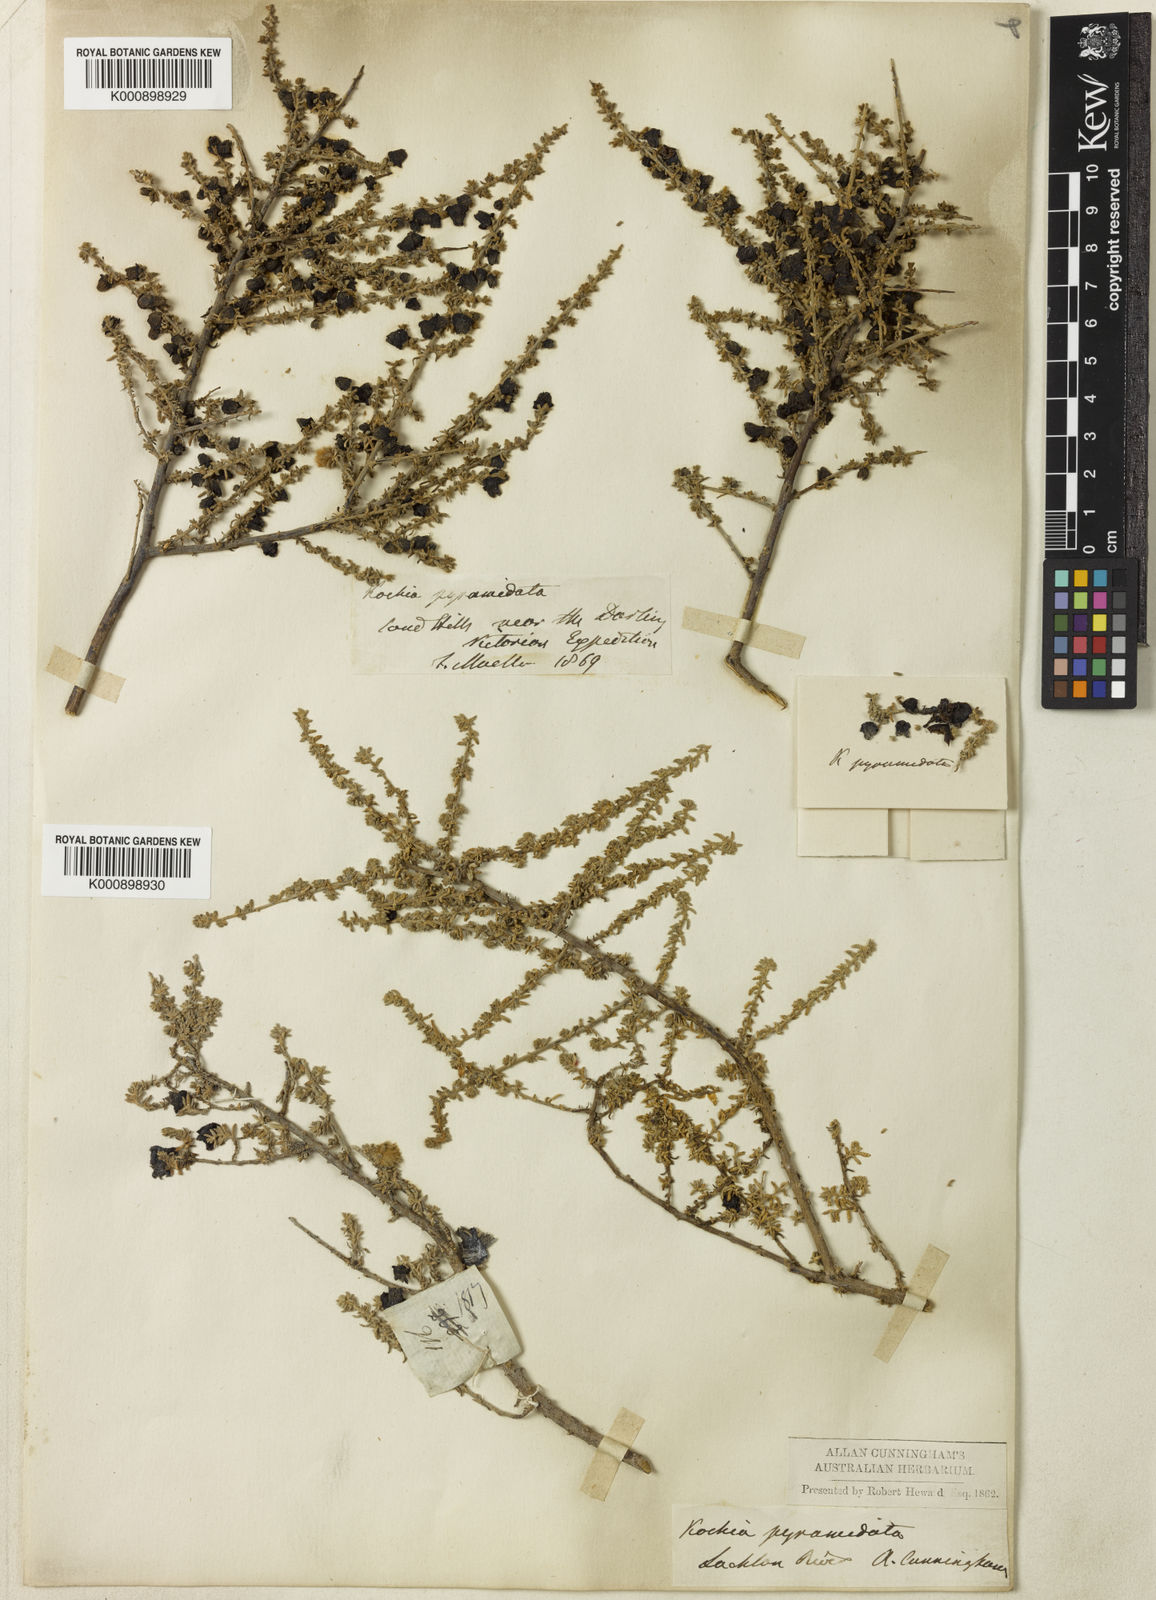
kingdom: Plantae
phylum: Tracheophyta
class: Magnoliopsida
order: Caryophyllales
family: Amaranthaceae
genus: Maireana
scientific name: Maireana pyramidata
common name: Sagobush
